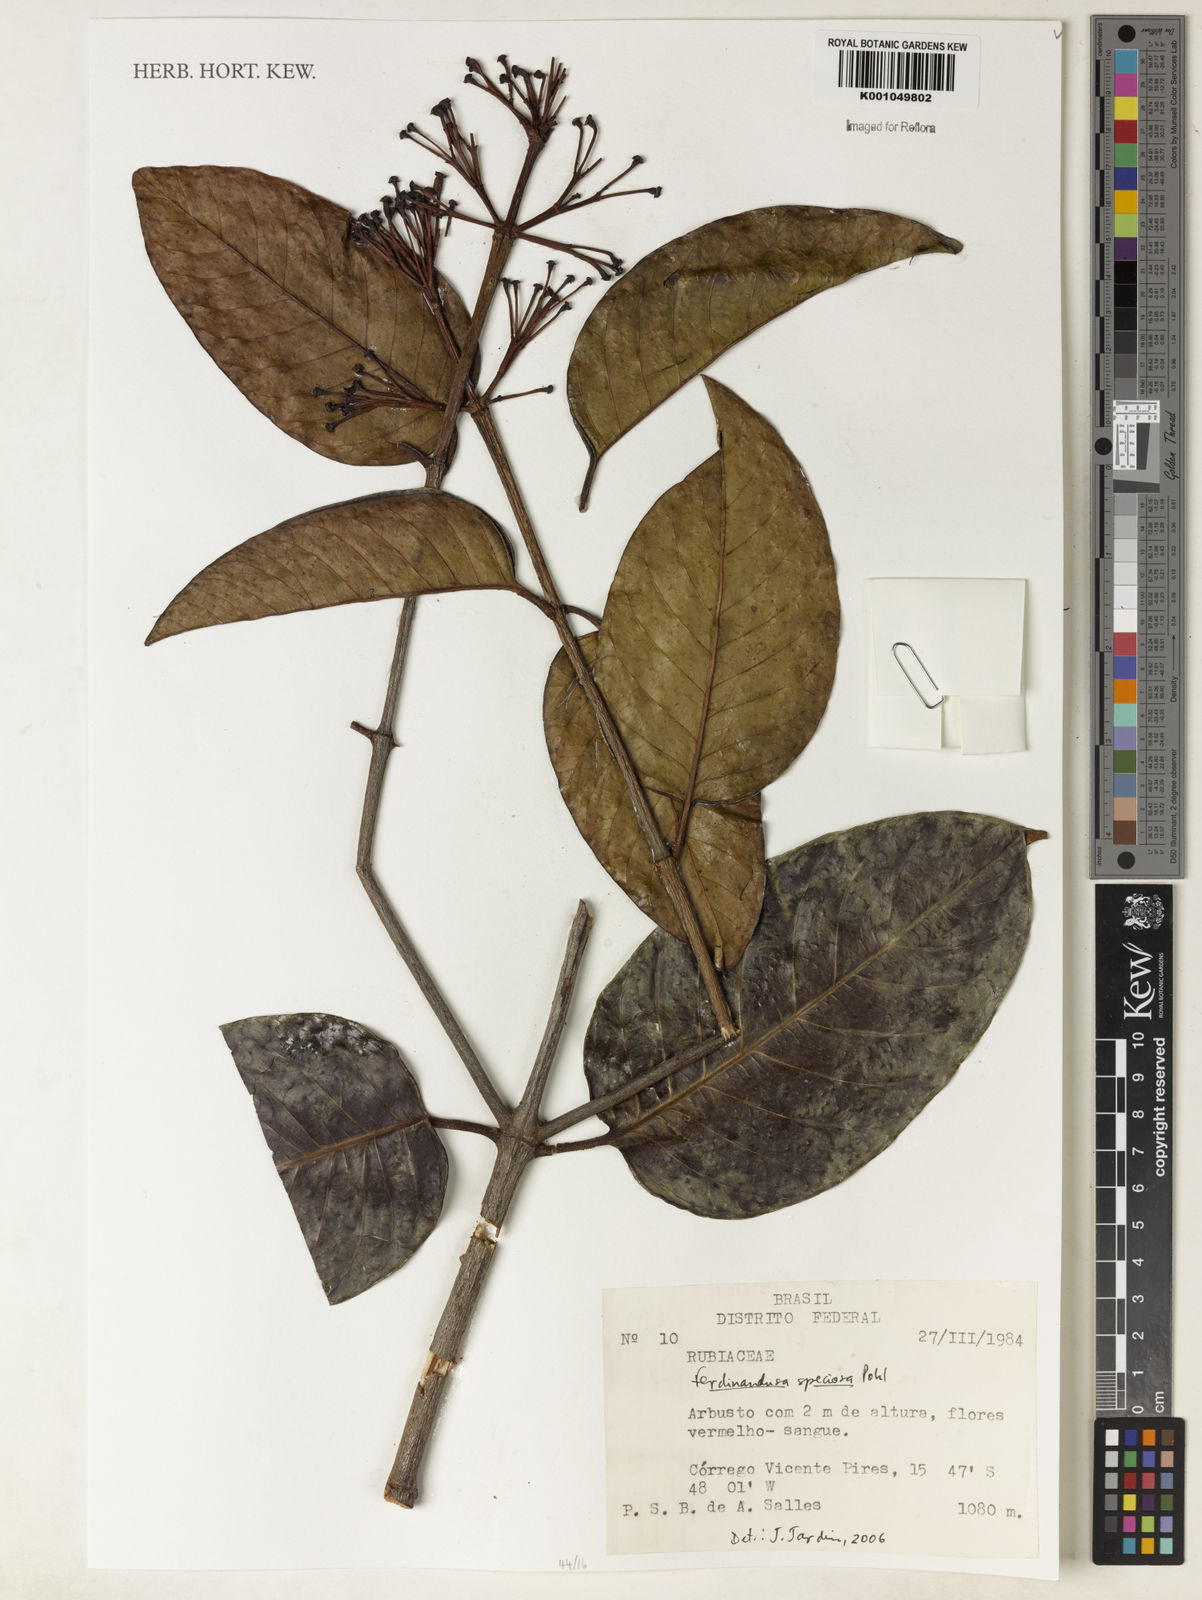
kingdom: Plantae
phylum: Tracheophyta
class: Magnoliopsida
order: Gentianales
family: Rubiaceae
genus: Ferdinandusa
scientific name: Ferdinandusa speciosa
